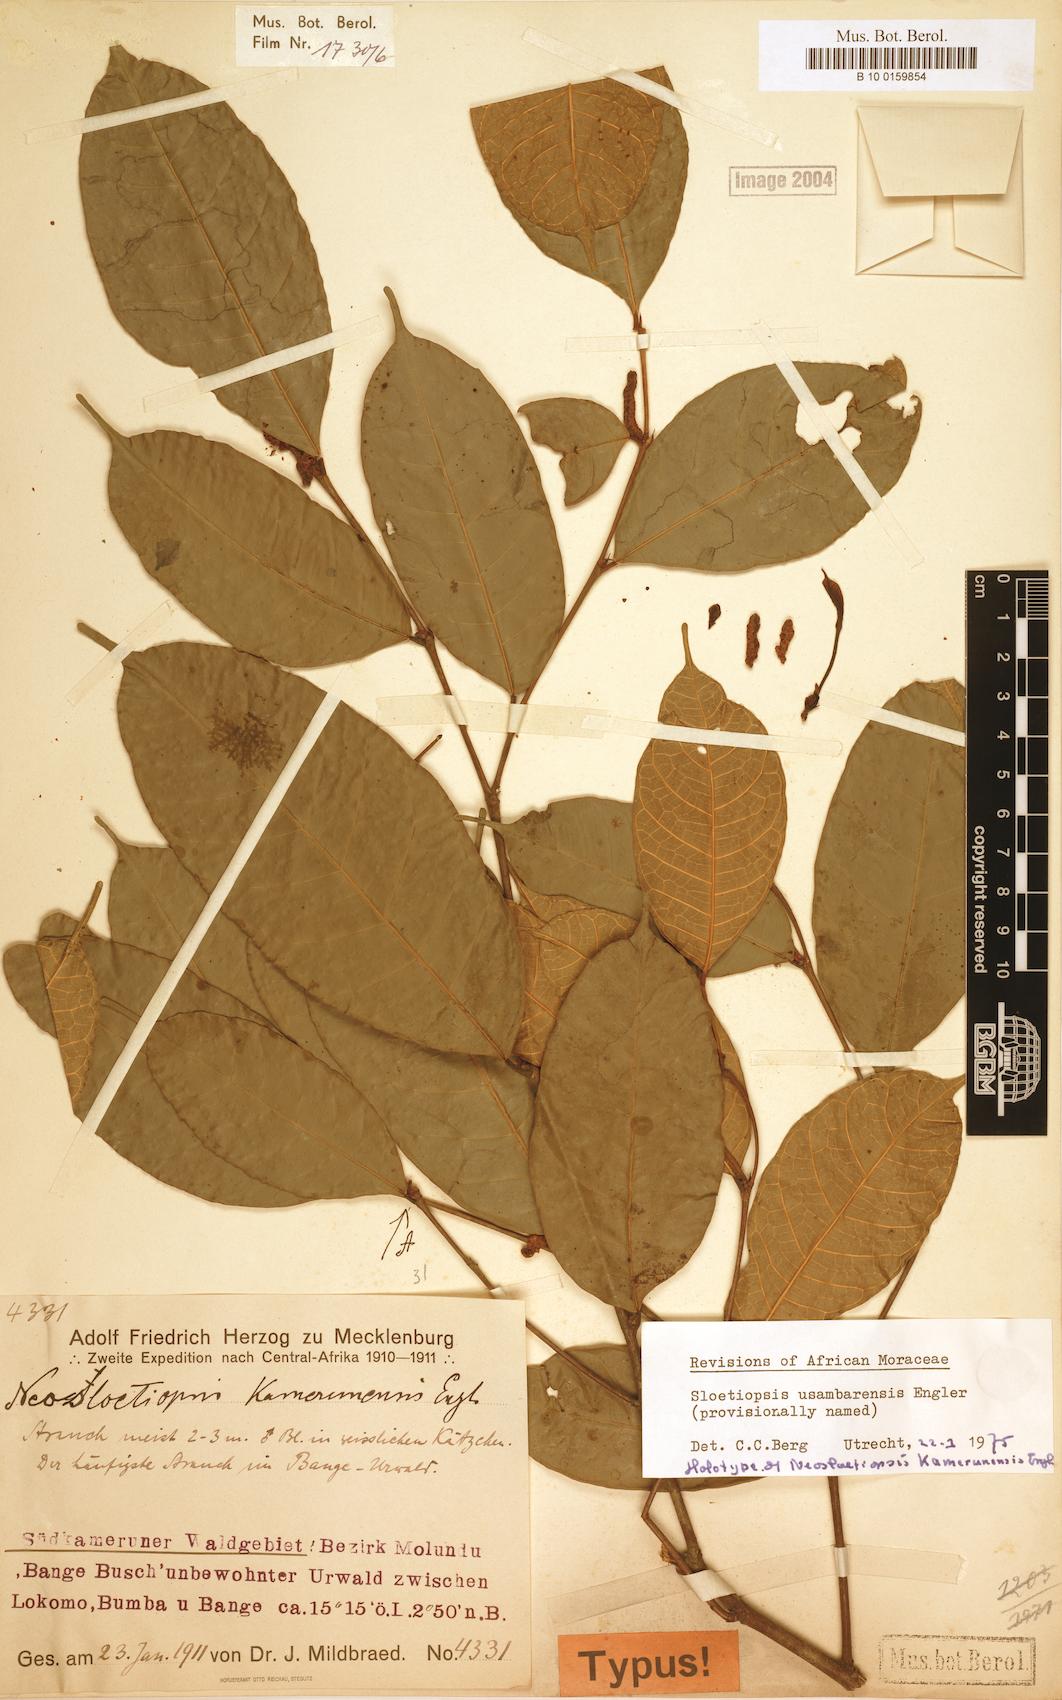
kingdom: Plantae
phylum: Tracheophyta
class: Magnoliopsida
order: Rosales
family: Moraceae
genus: Sloetiopsis
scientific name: Sloetiopsis usambarensis
